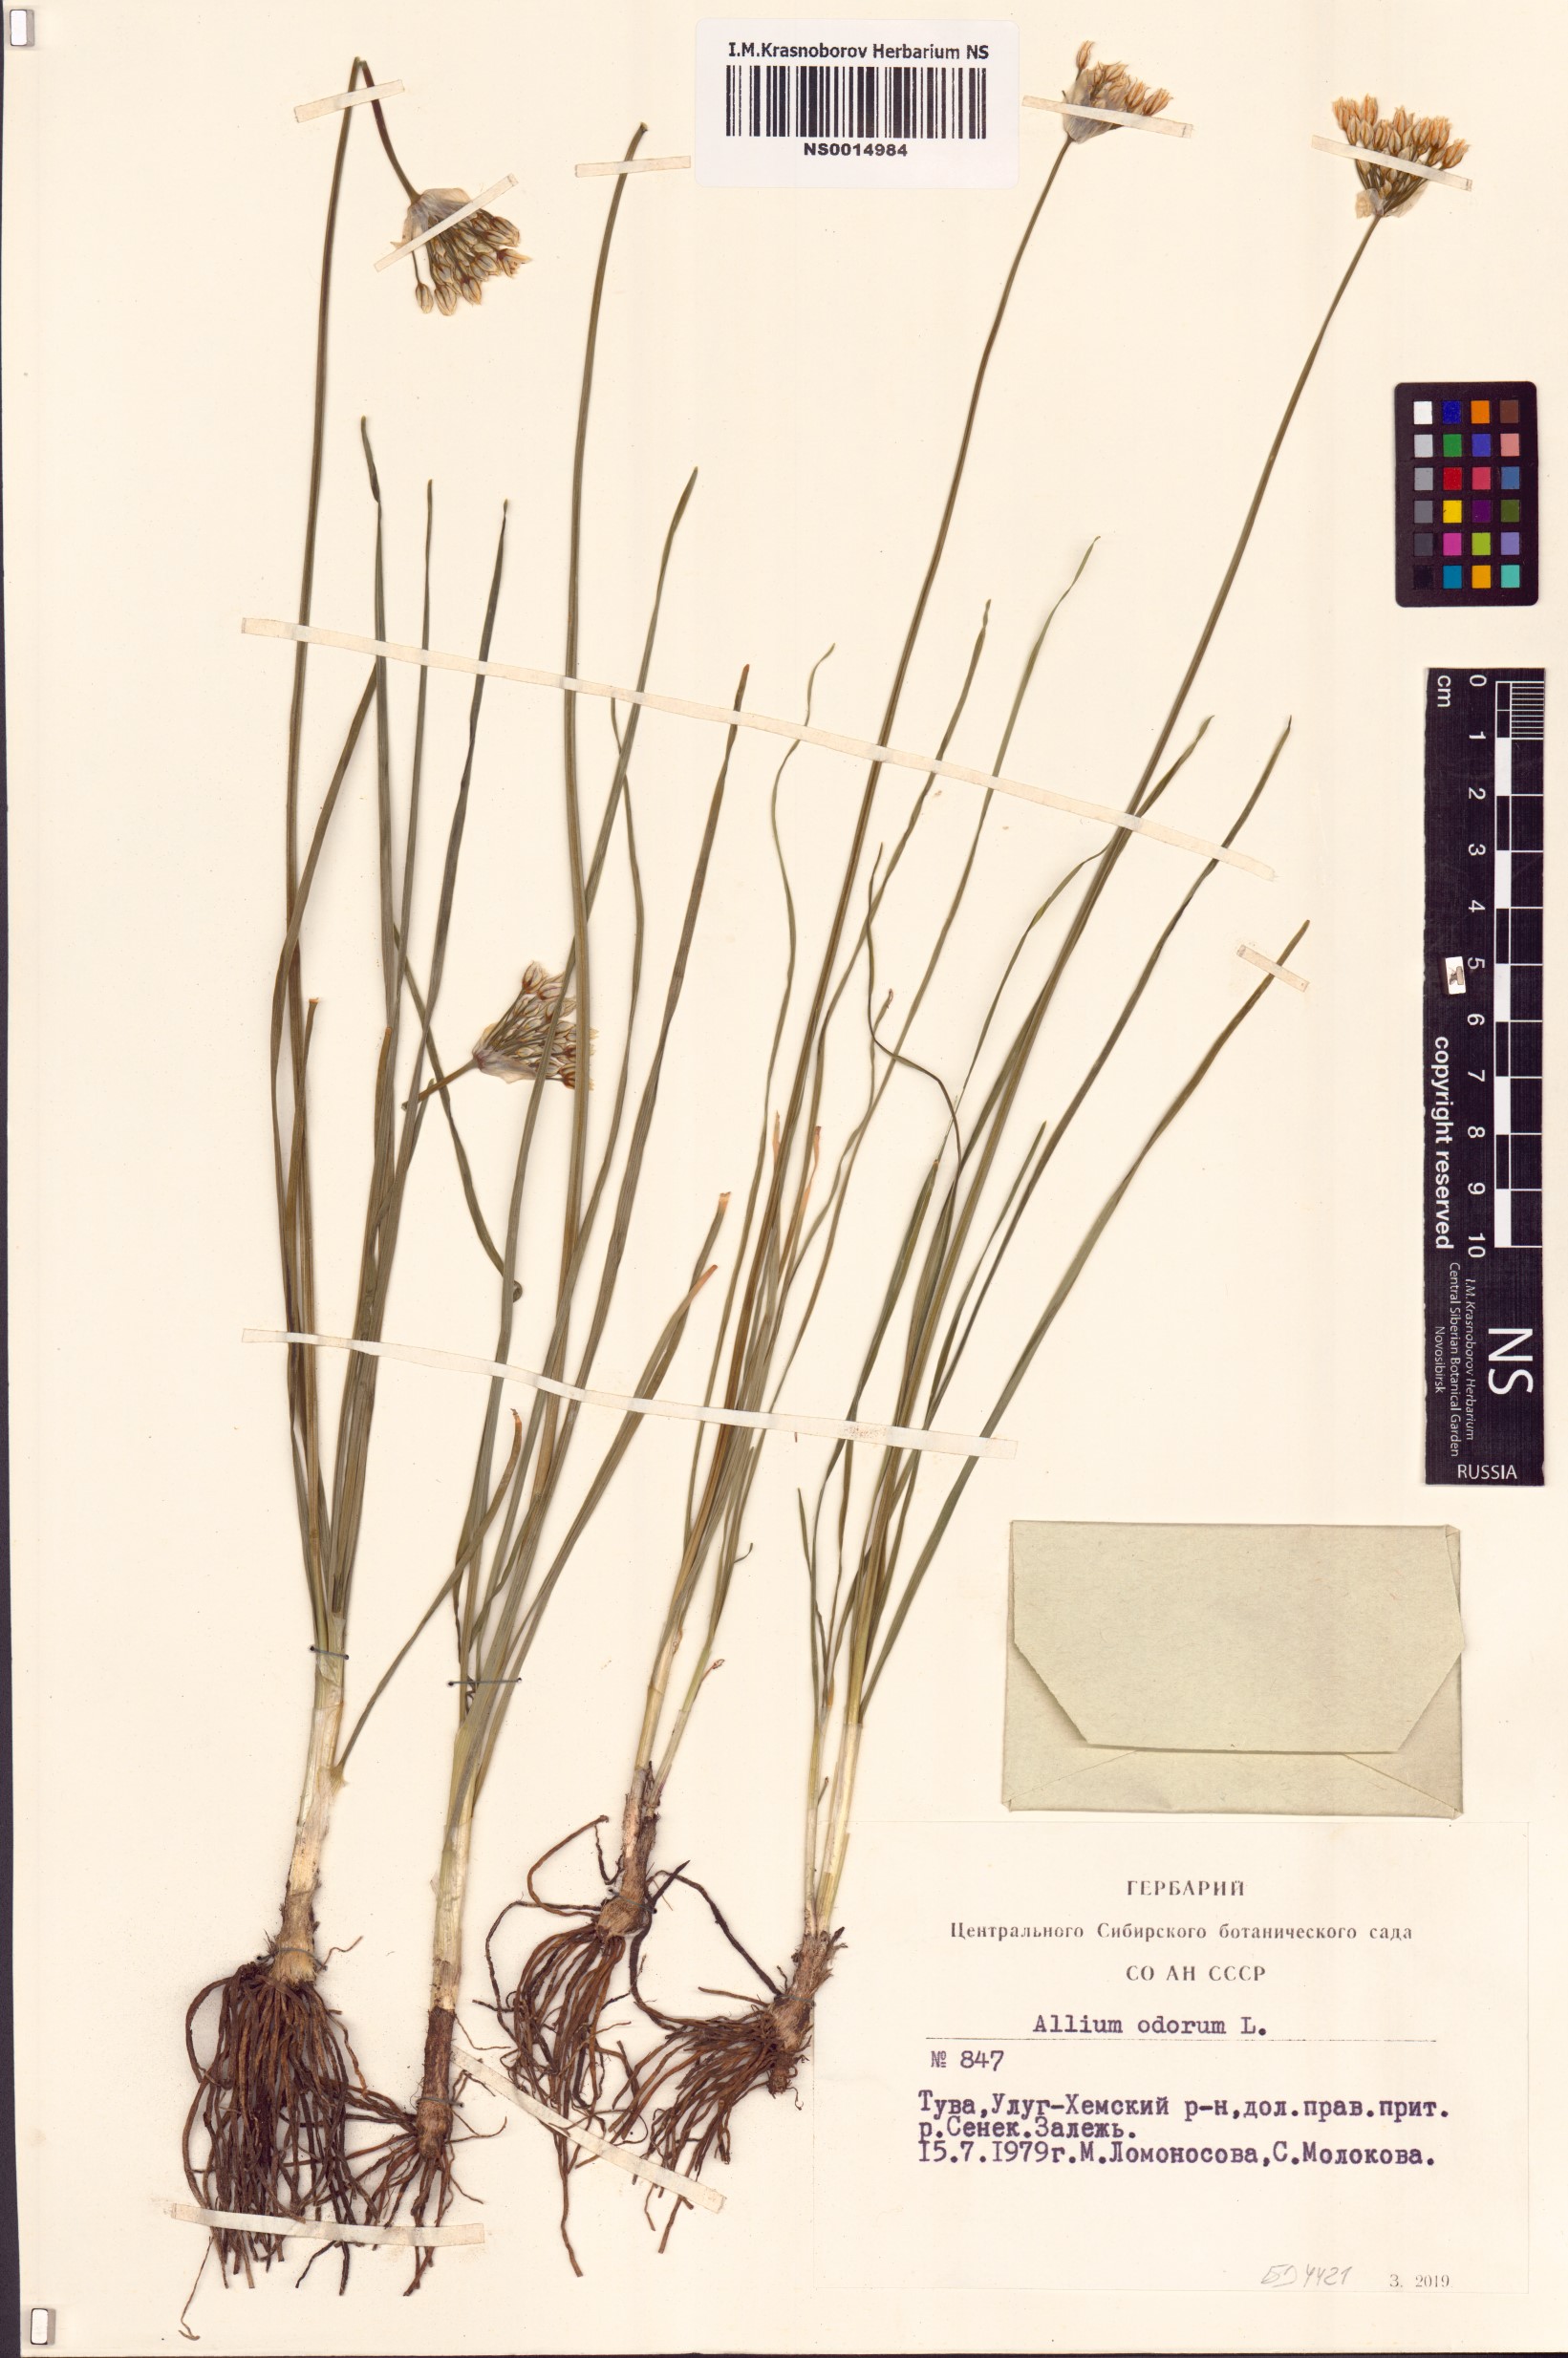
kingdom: Plantae
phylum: Tracheophyta
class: Liliopsida
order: Asparagales
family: Amaryllidaceae
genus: Allium
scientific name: Allium ramosum
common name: Fragrant garlic
